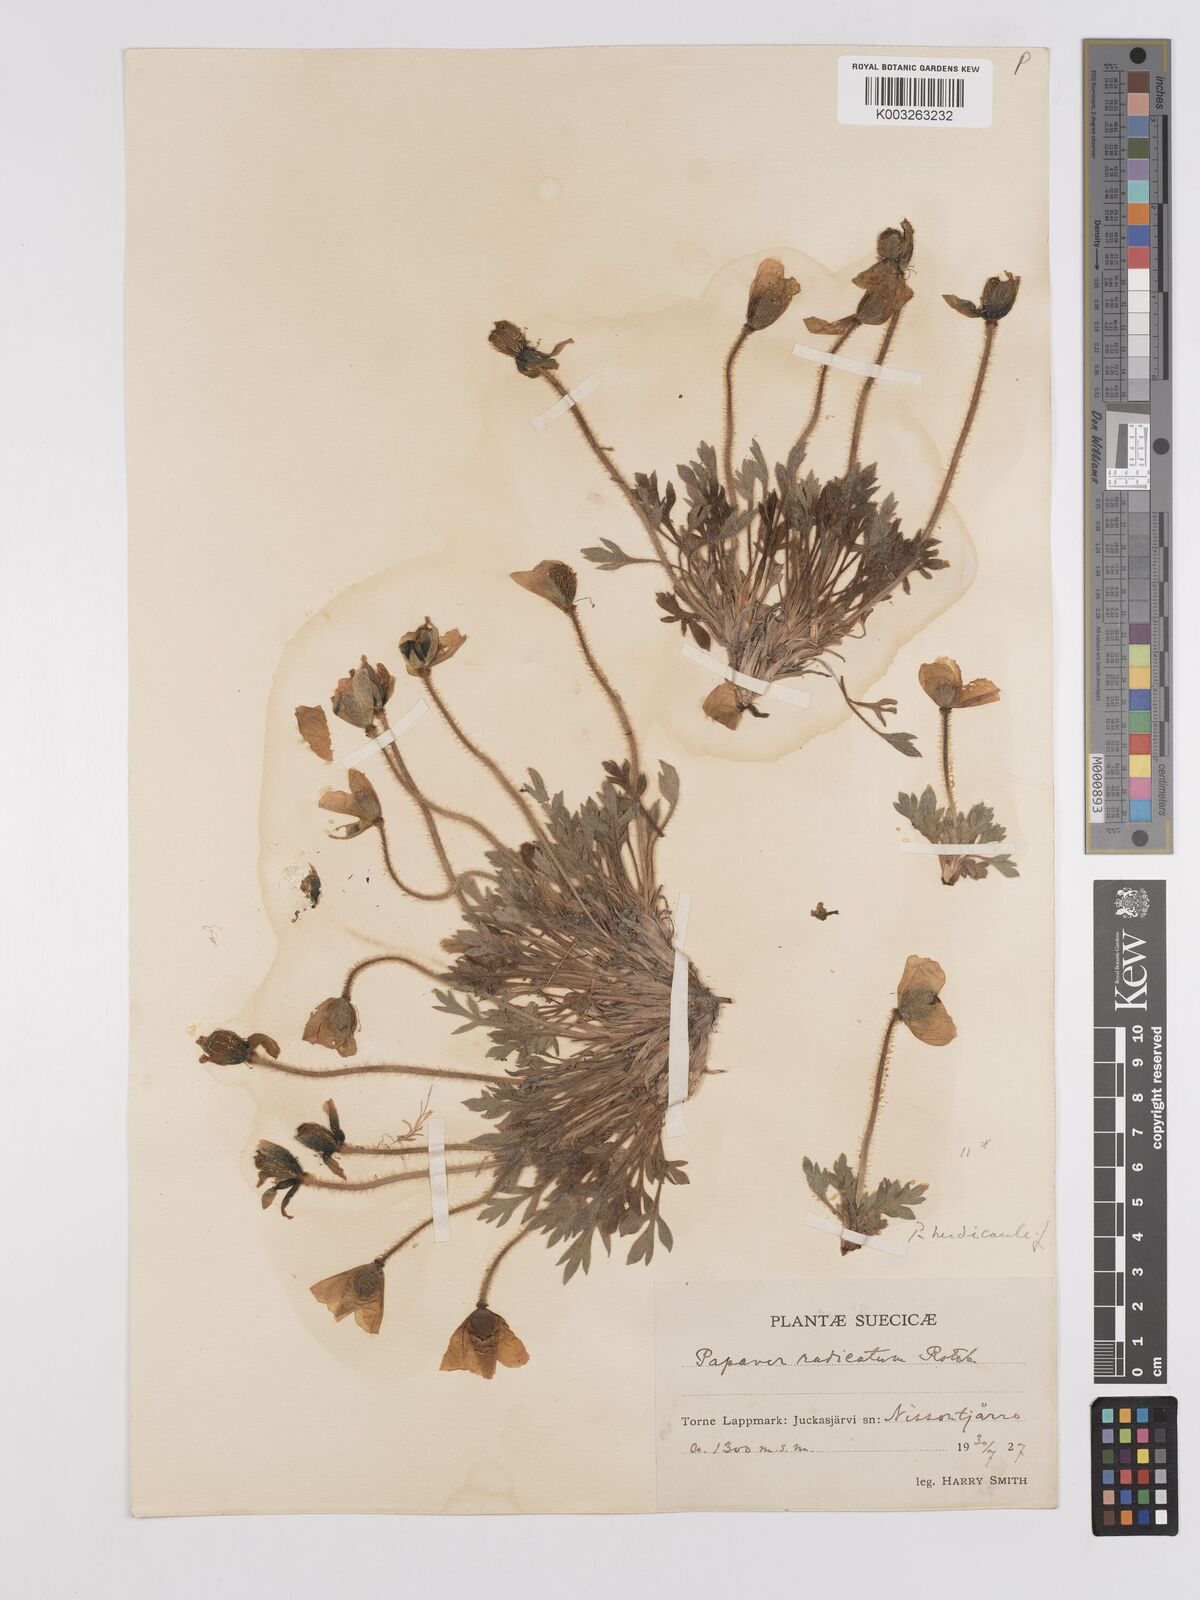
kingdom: Plantae
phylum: Tracheophyta
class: Magnoliopsida
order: Ranunculales
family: Papaveraceae
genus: Papaver
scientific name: Papaver radicatum
